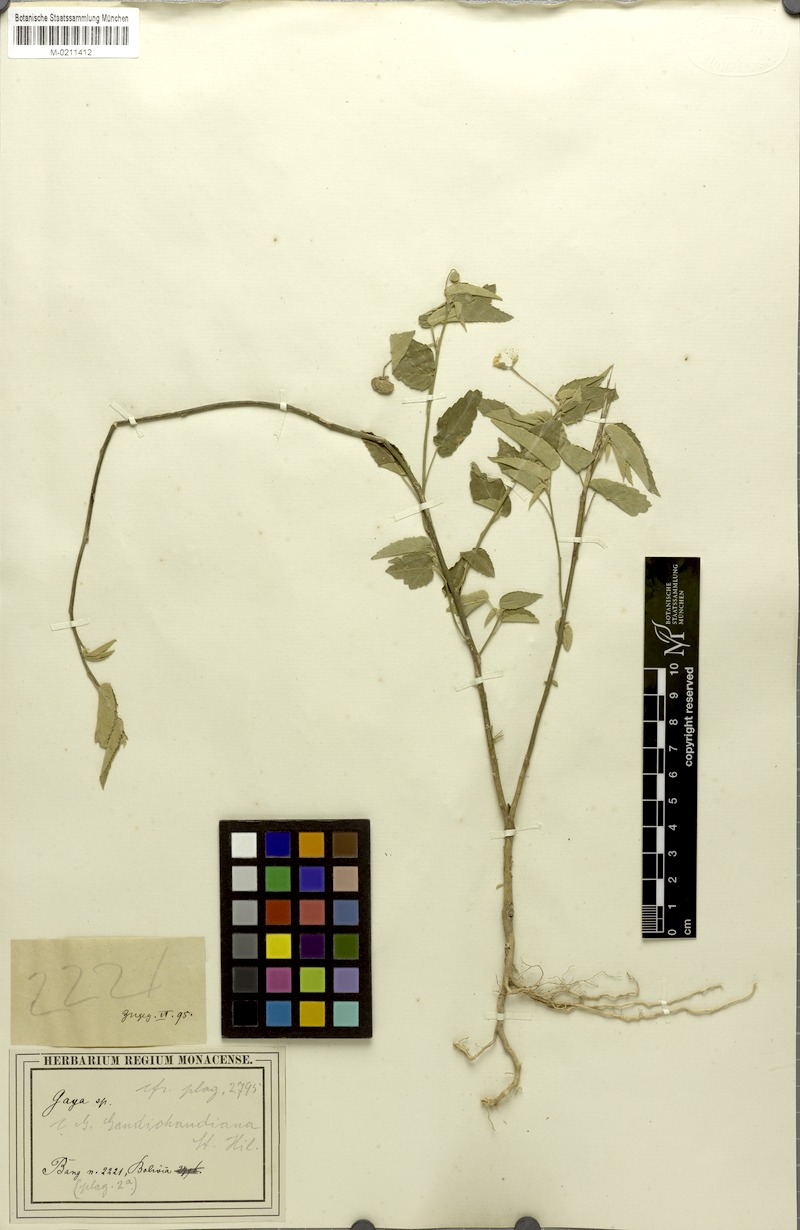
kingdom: Plantae
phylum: Tracheophyta
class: Magnoliopsida
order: Malvales
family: Malvaceae
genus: Gaya
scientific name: Gaya gaudichaudiana
